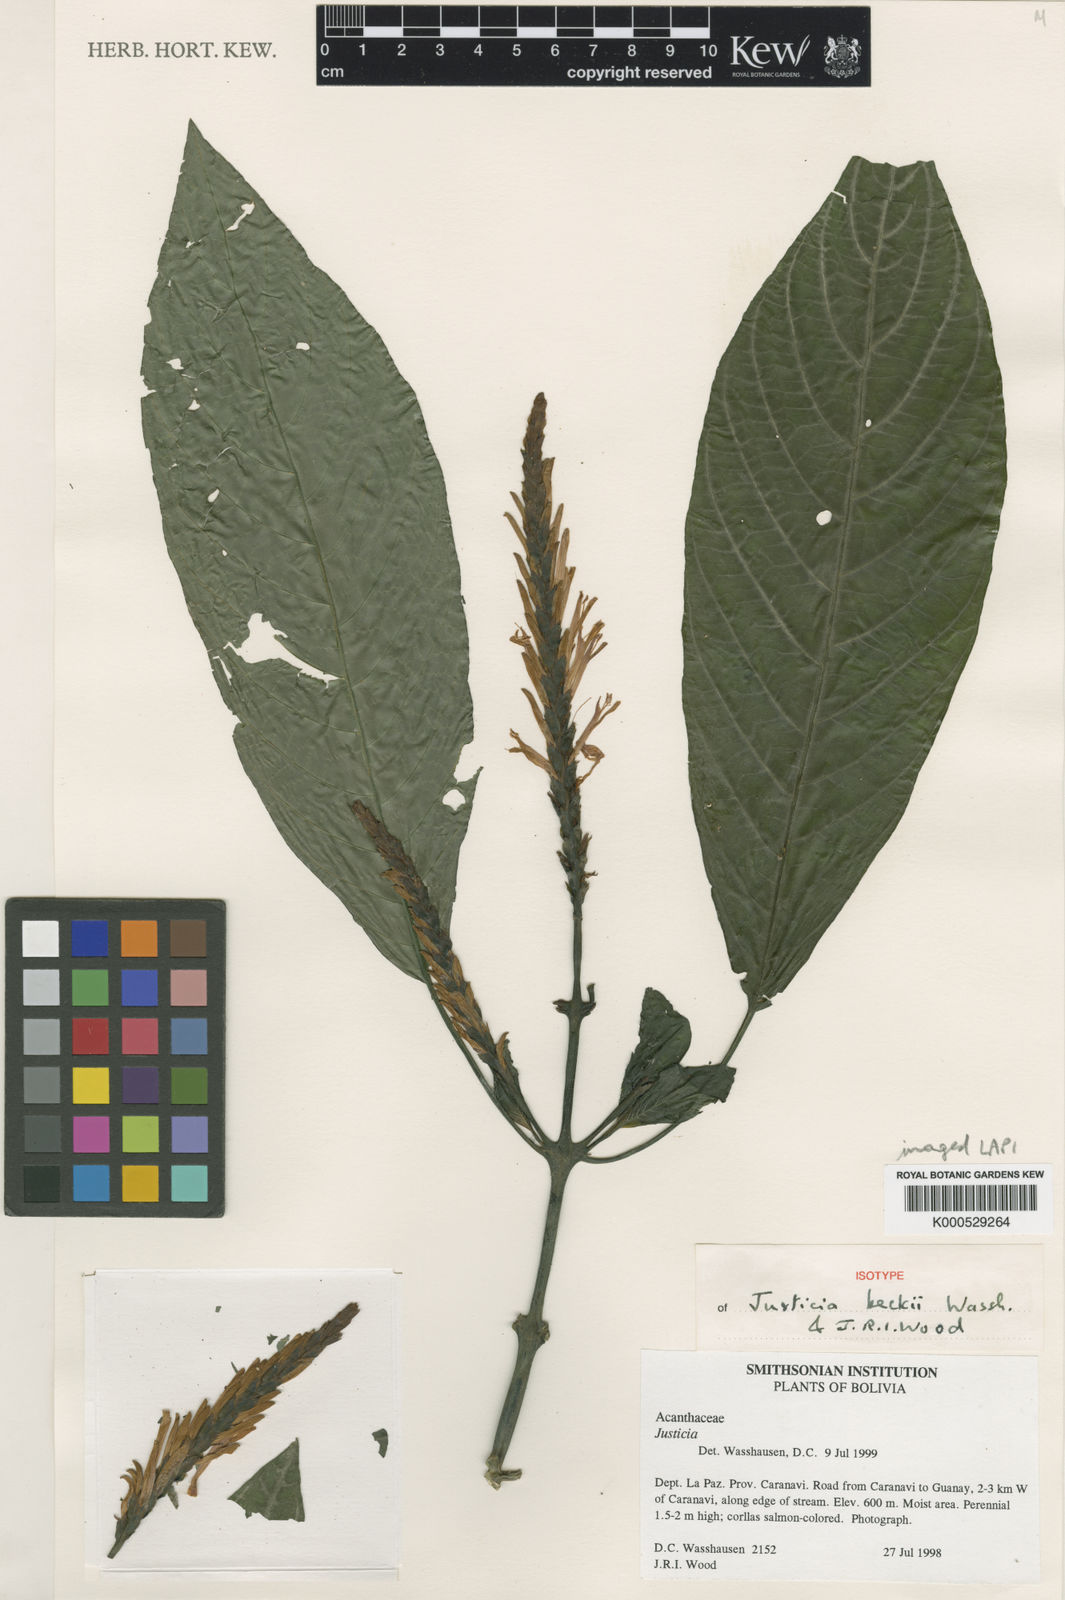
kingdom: Plantae
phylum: Tracheophyta
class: Magnoliopsida
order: Lamiales
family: Acanthaceae
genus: Justicia
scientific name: Justicia beckii
